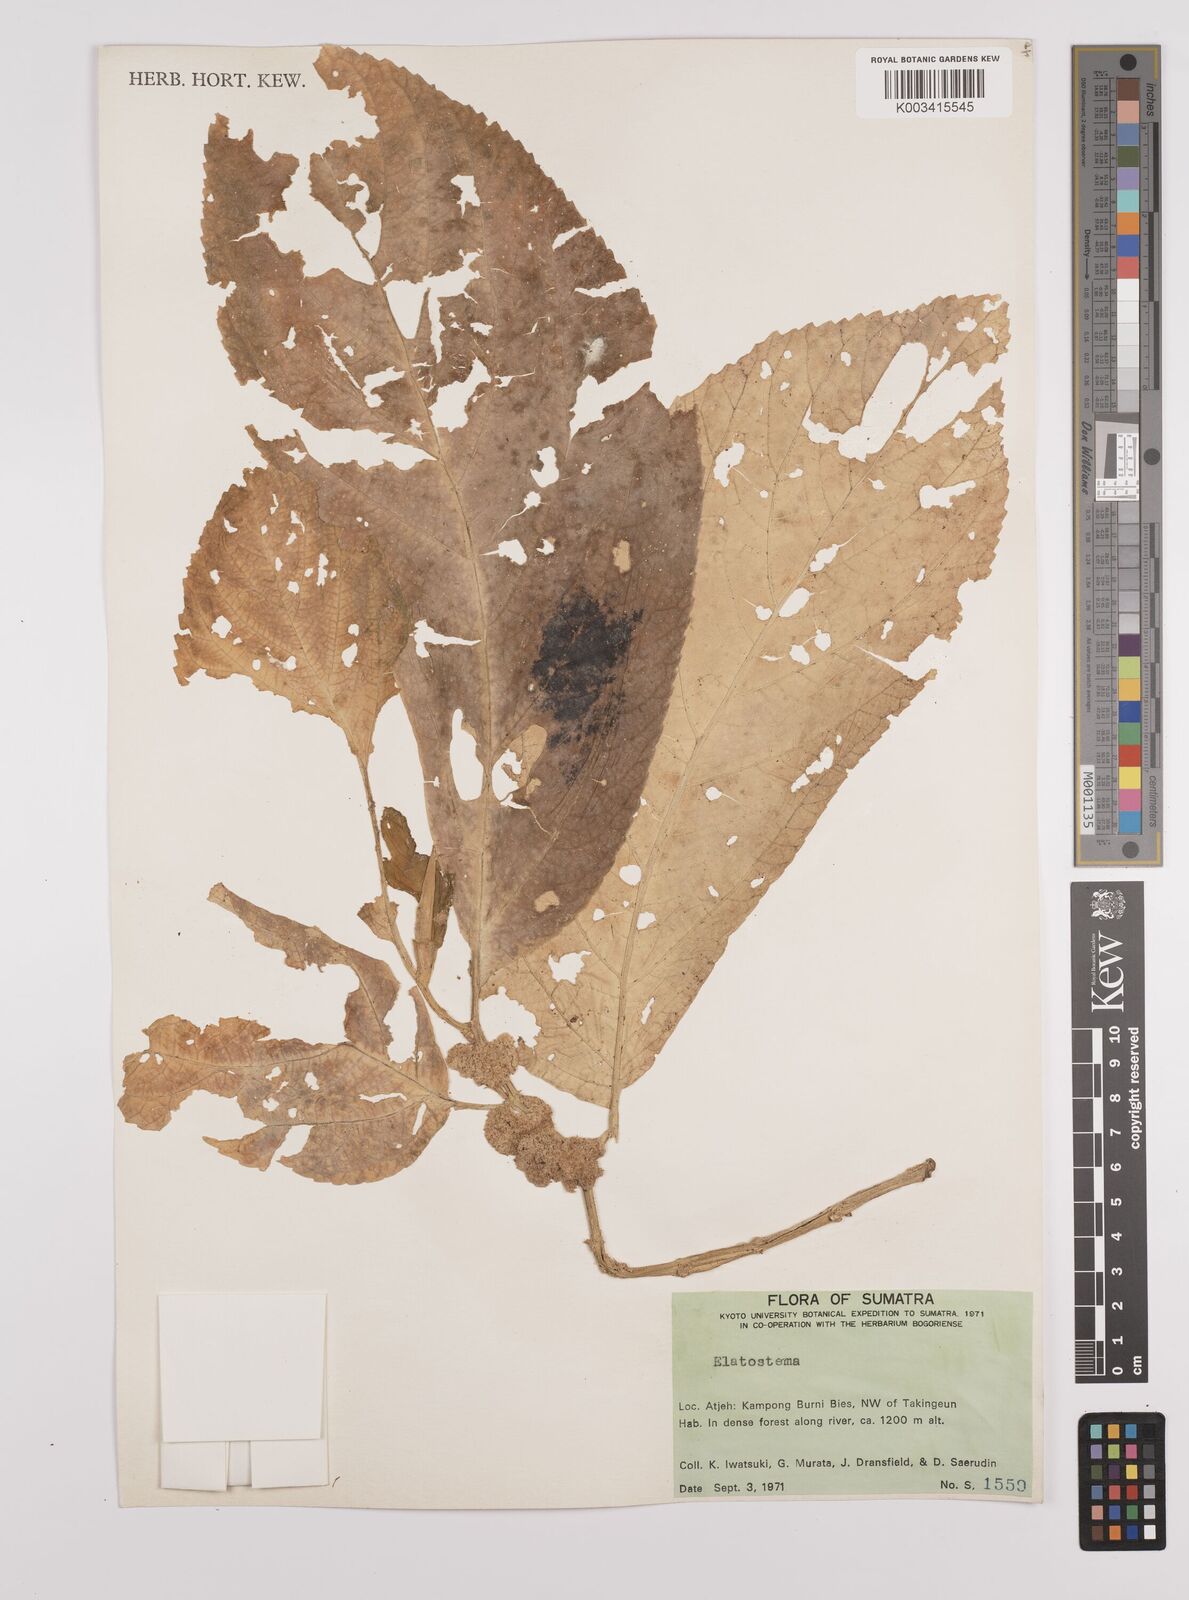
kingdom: Plantae
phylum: Tracheophyta
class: Magnoliopsida
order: Rosales
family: Urticaceae
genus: Elatostema
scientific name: Elatostema
